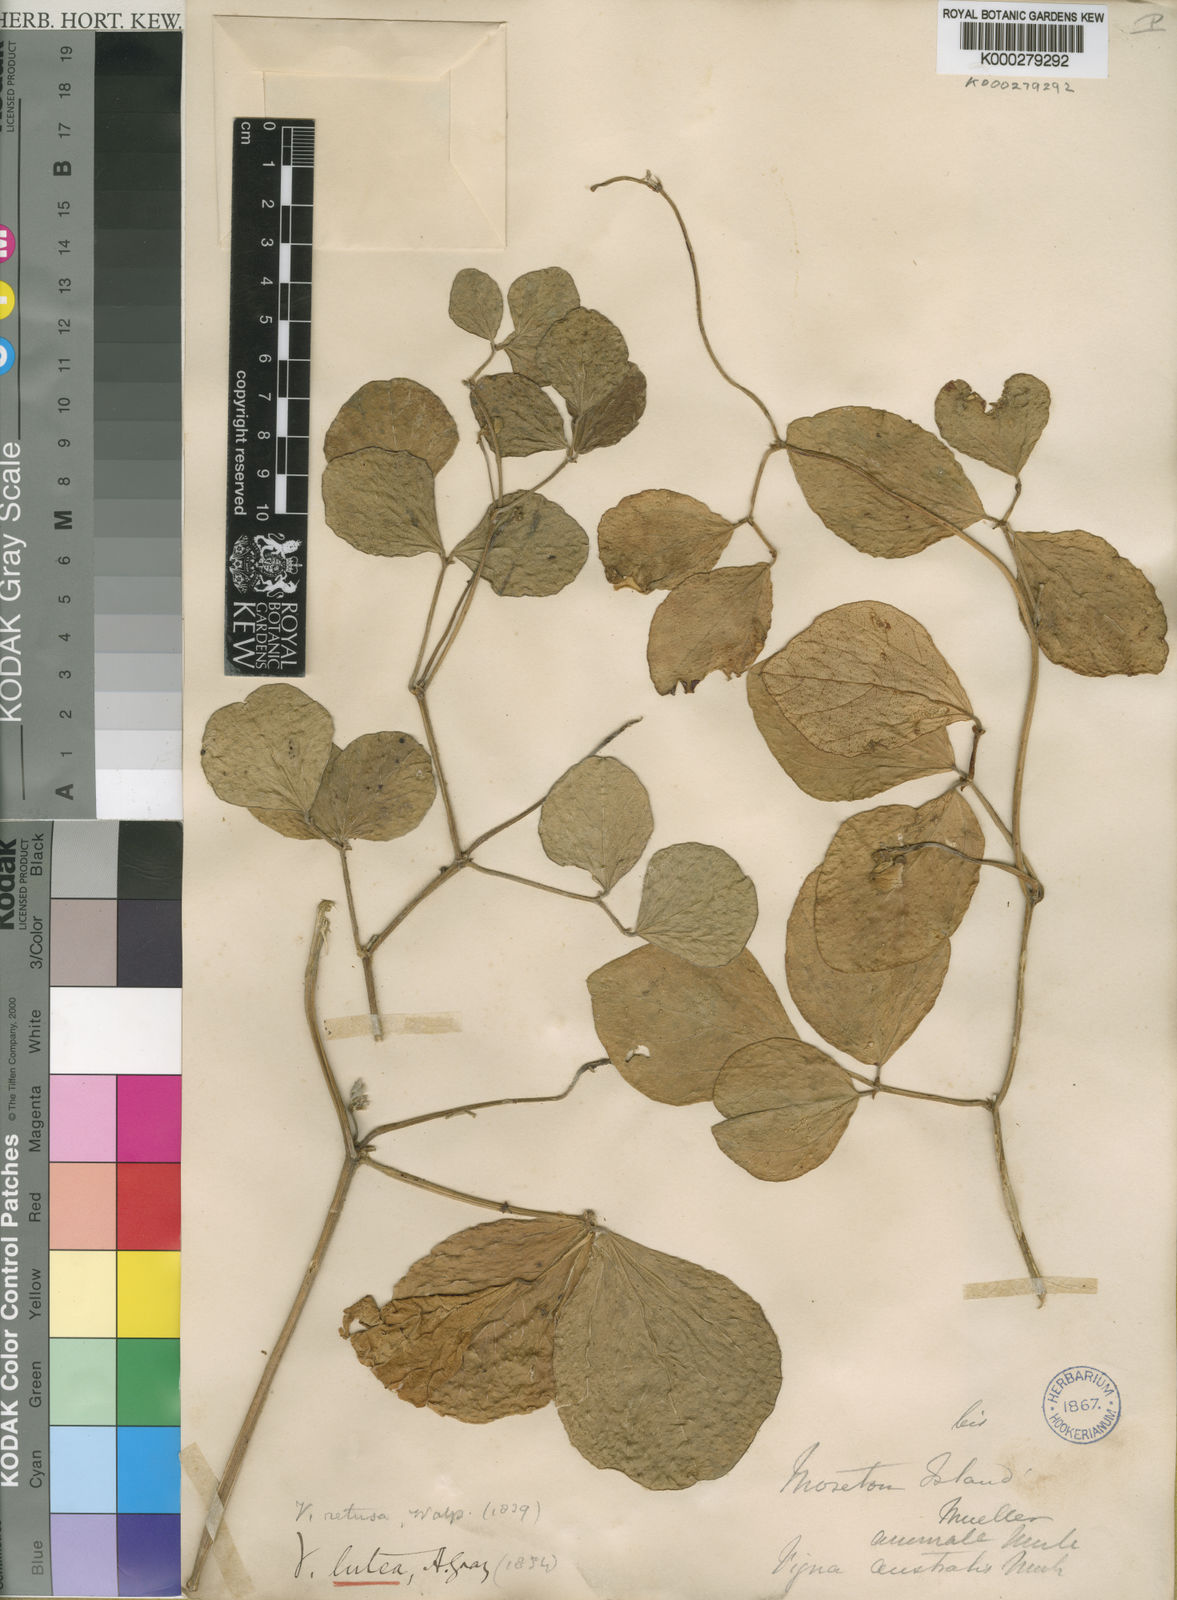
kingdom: Plantae
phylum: Tracheophyta
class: Magnoliopsida
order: Fabales
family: Fabaceae
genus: Vigna
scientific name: Vigna marina
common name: Dune-bean
